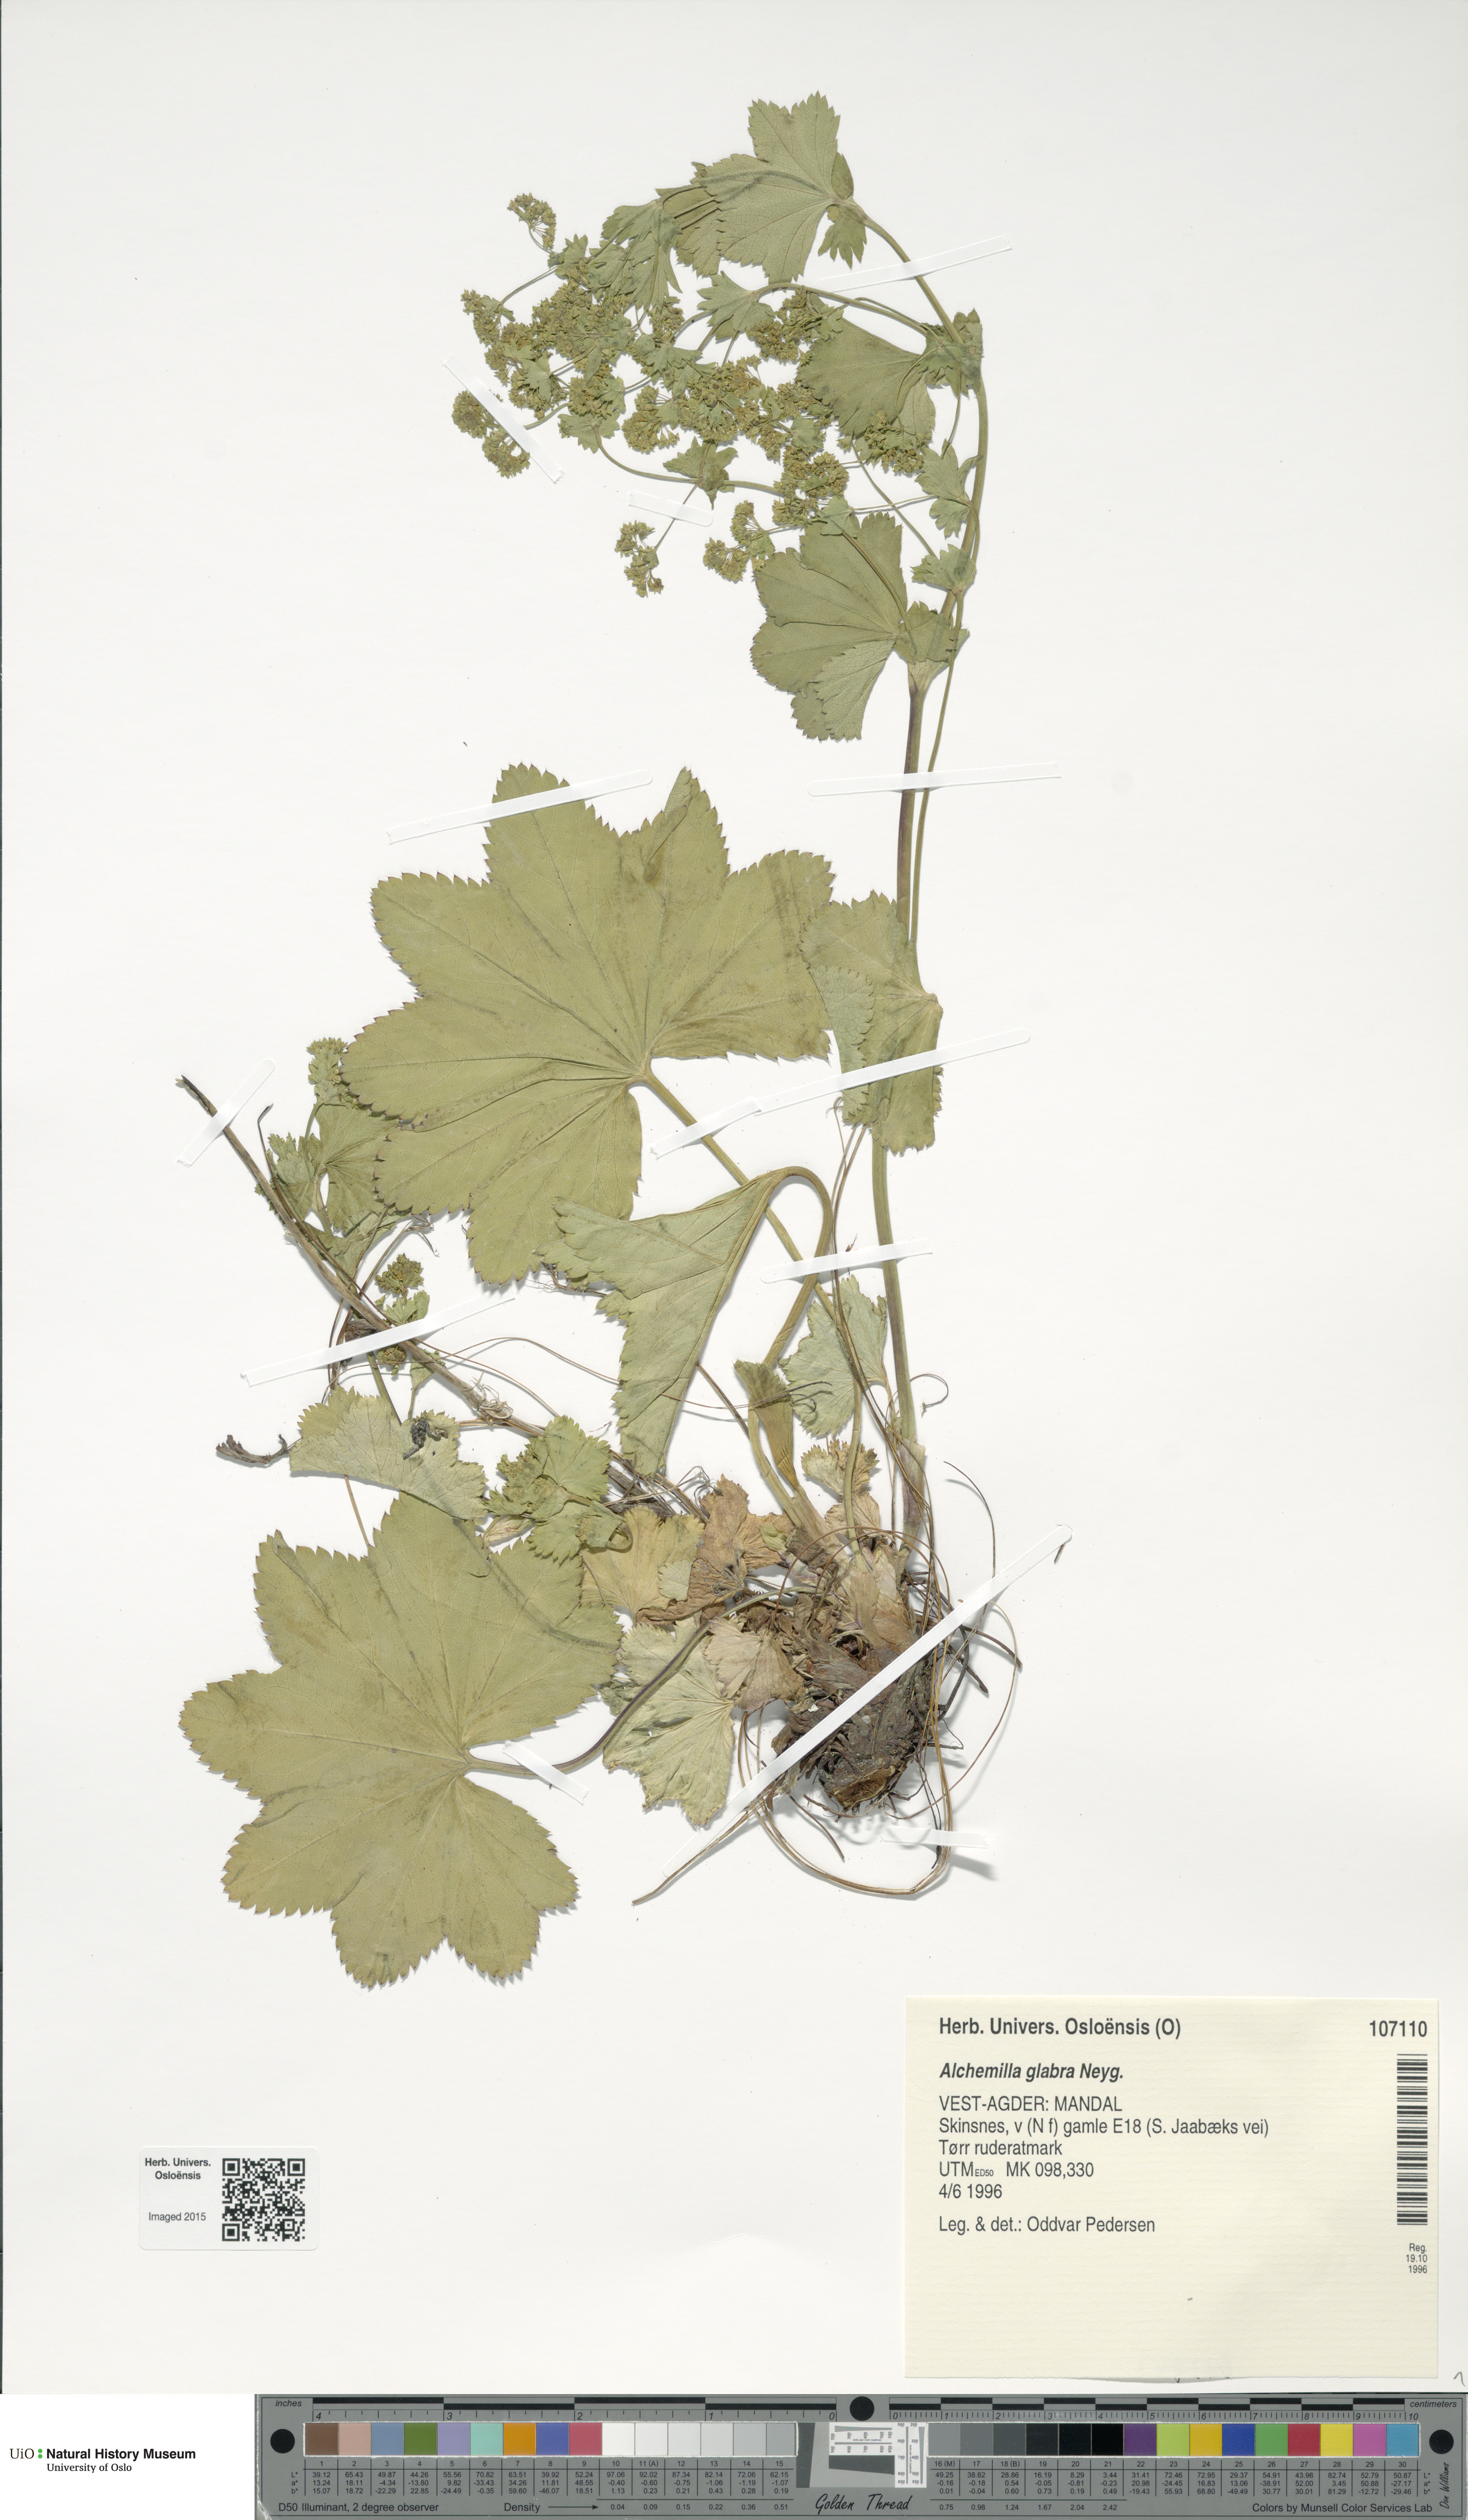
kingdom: Plantae
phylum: Tracheophyta
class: Magnoliopsida
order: Rosales
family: Rosaceae
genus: Alchemilla
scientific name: Alchemilla glabra
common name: Smooth lady's-mantle
